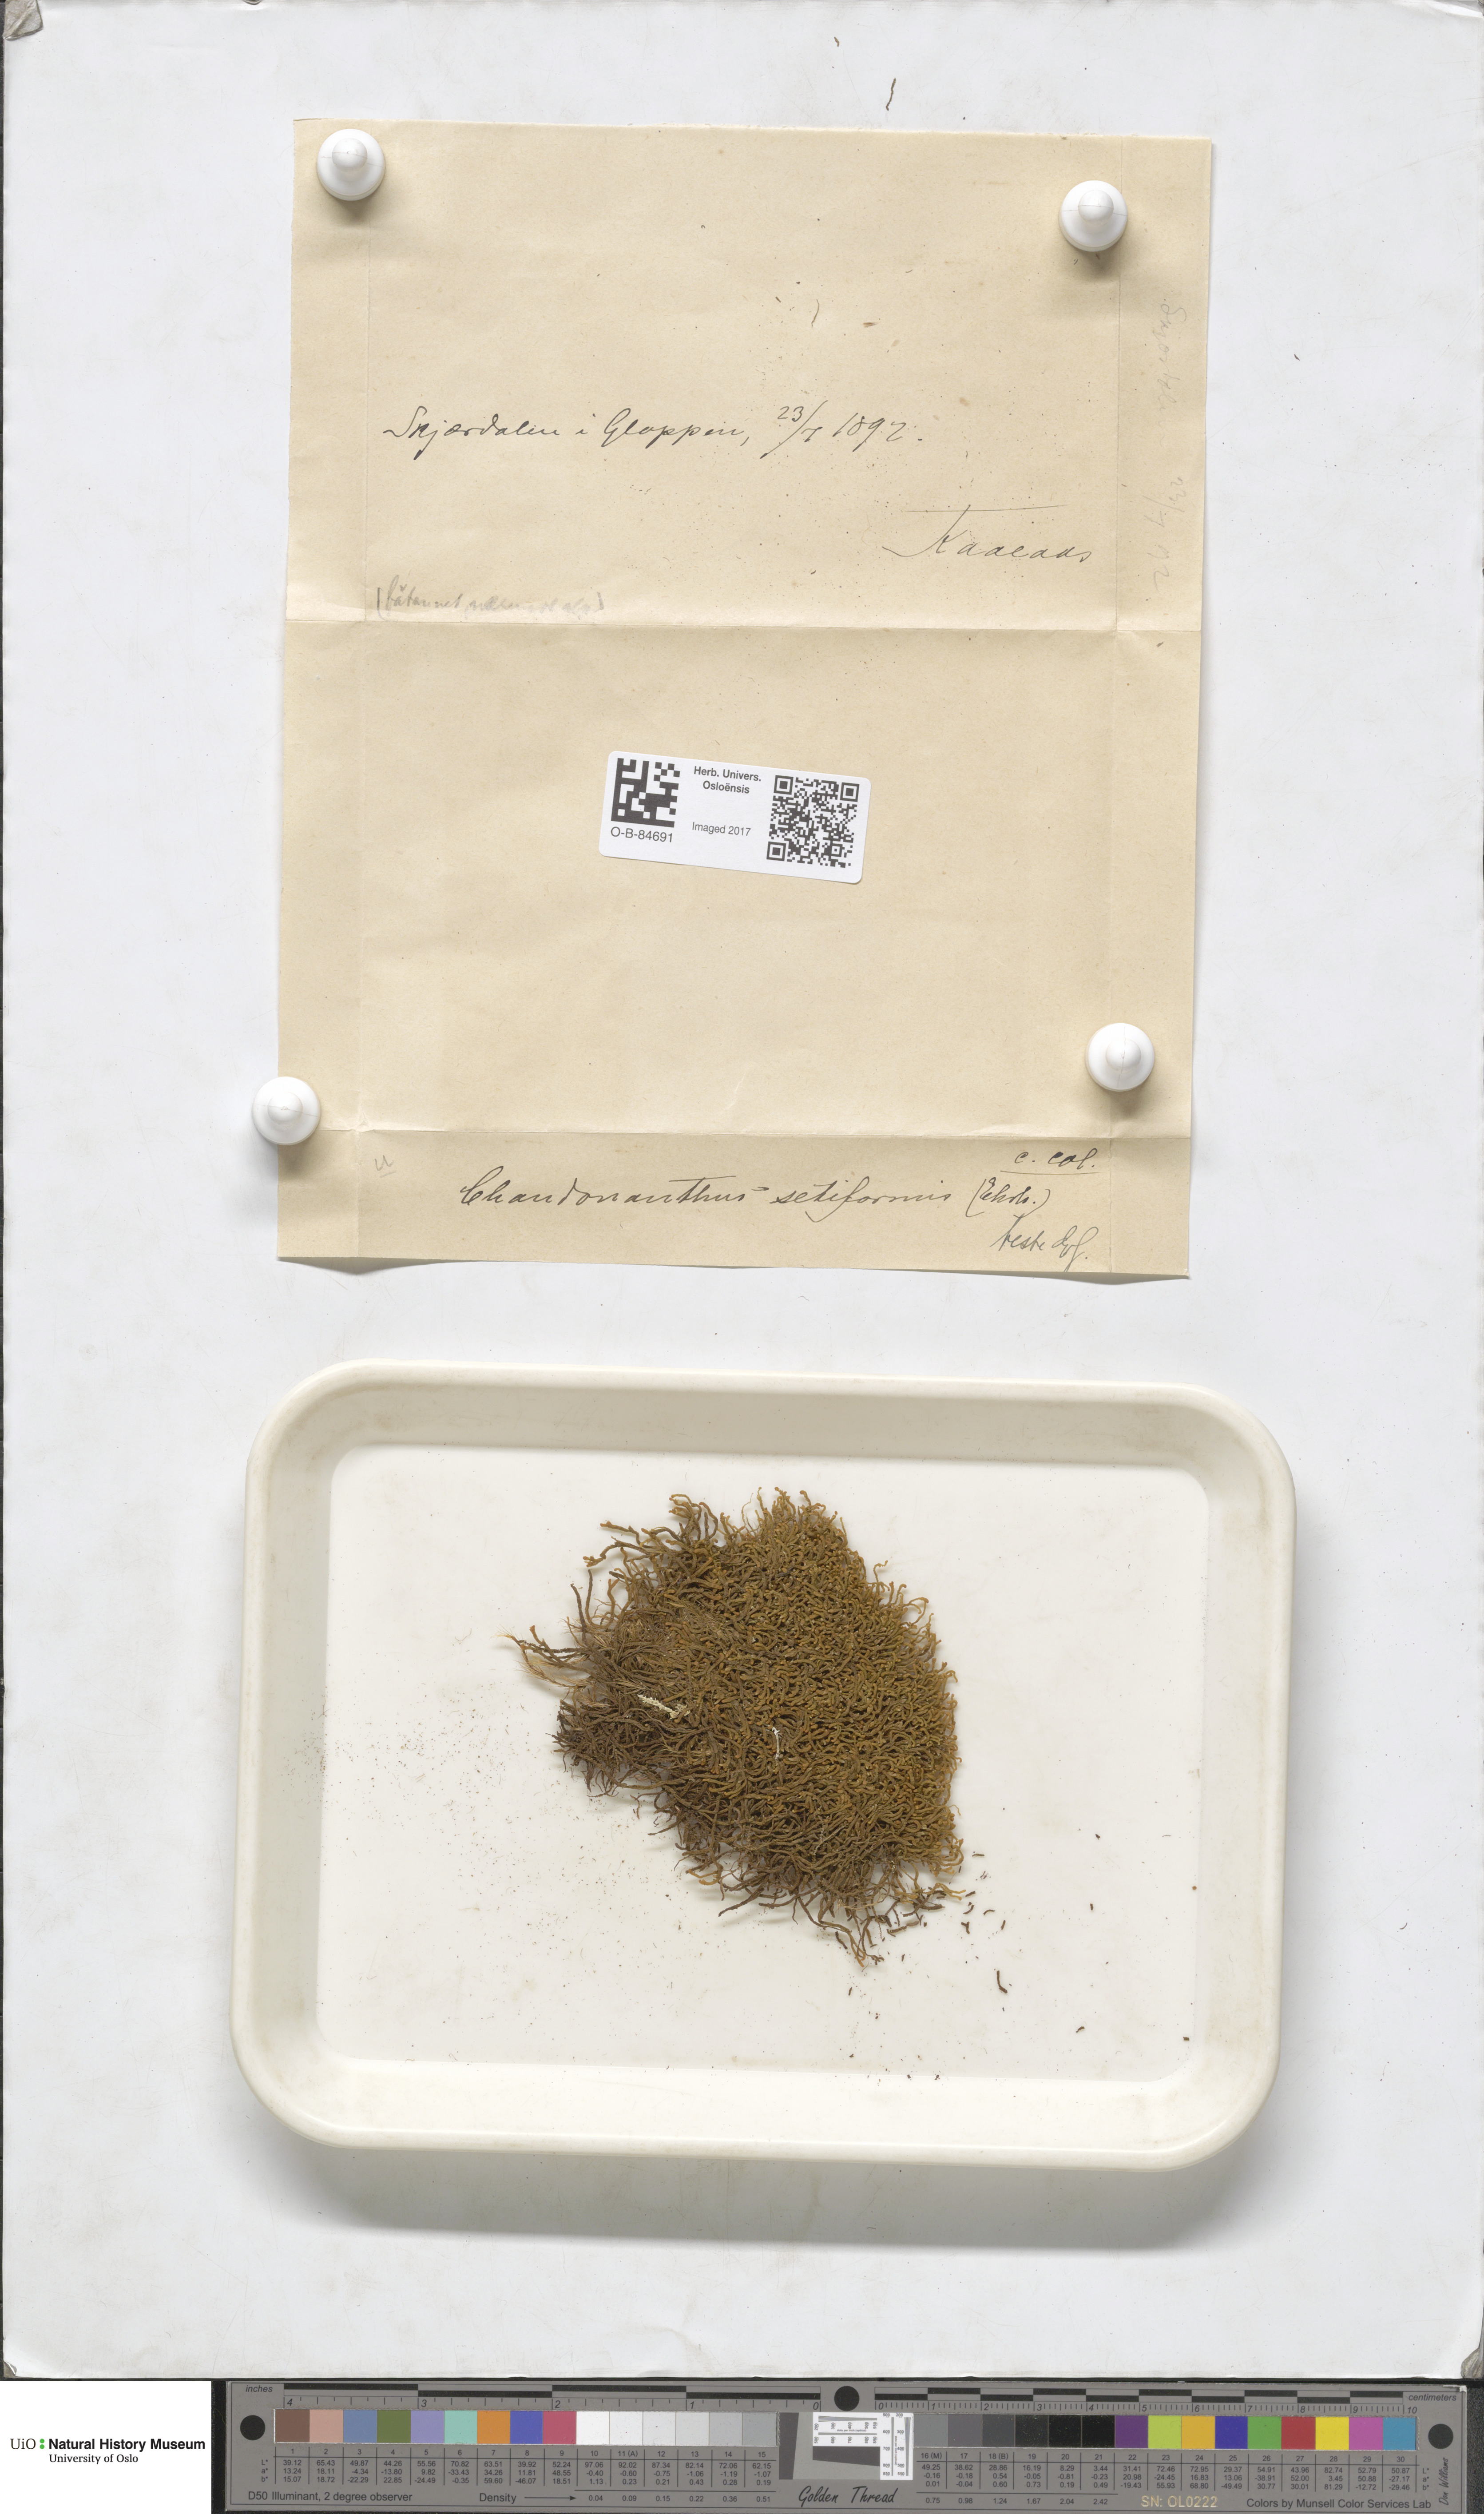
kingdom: Plantae
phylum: Marchantiophyta
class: Jungermanniopsida
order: Jungermanniales
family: Anastrophyllaceae
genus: Tetralophozia
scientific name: Tetralophozia setiformis
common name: Monster pawwort
